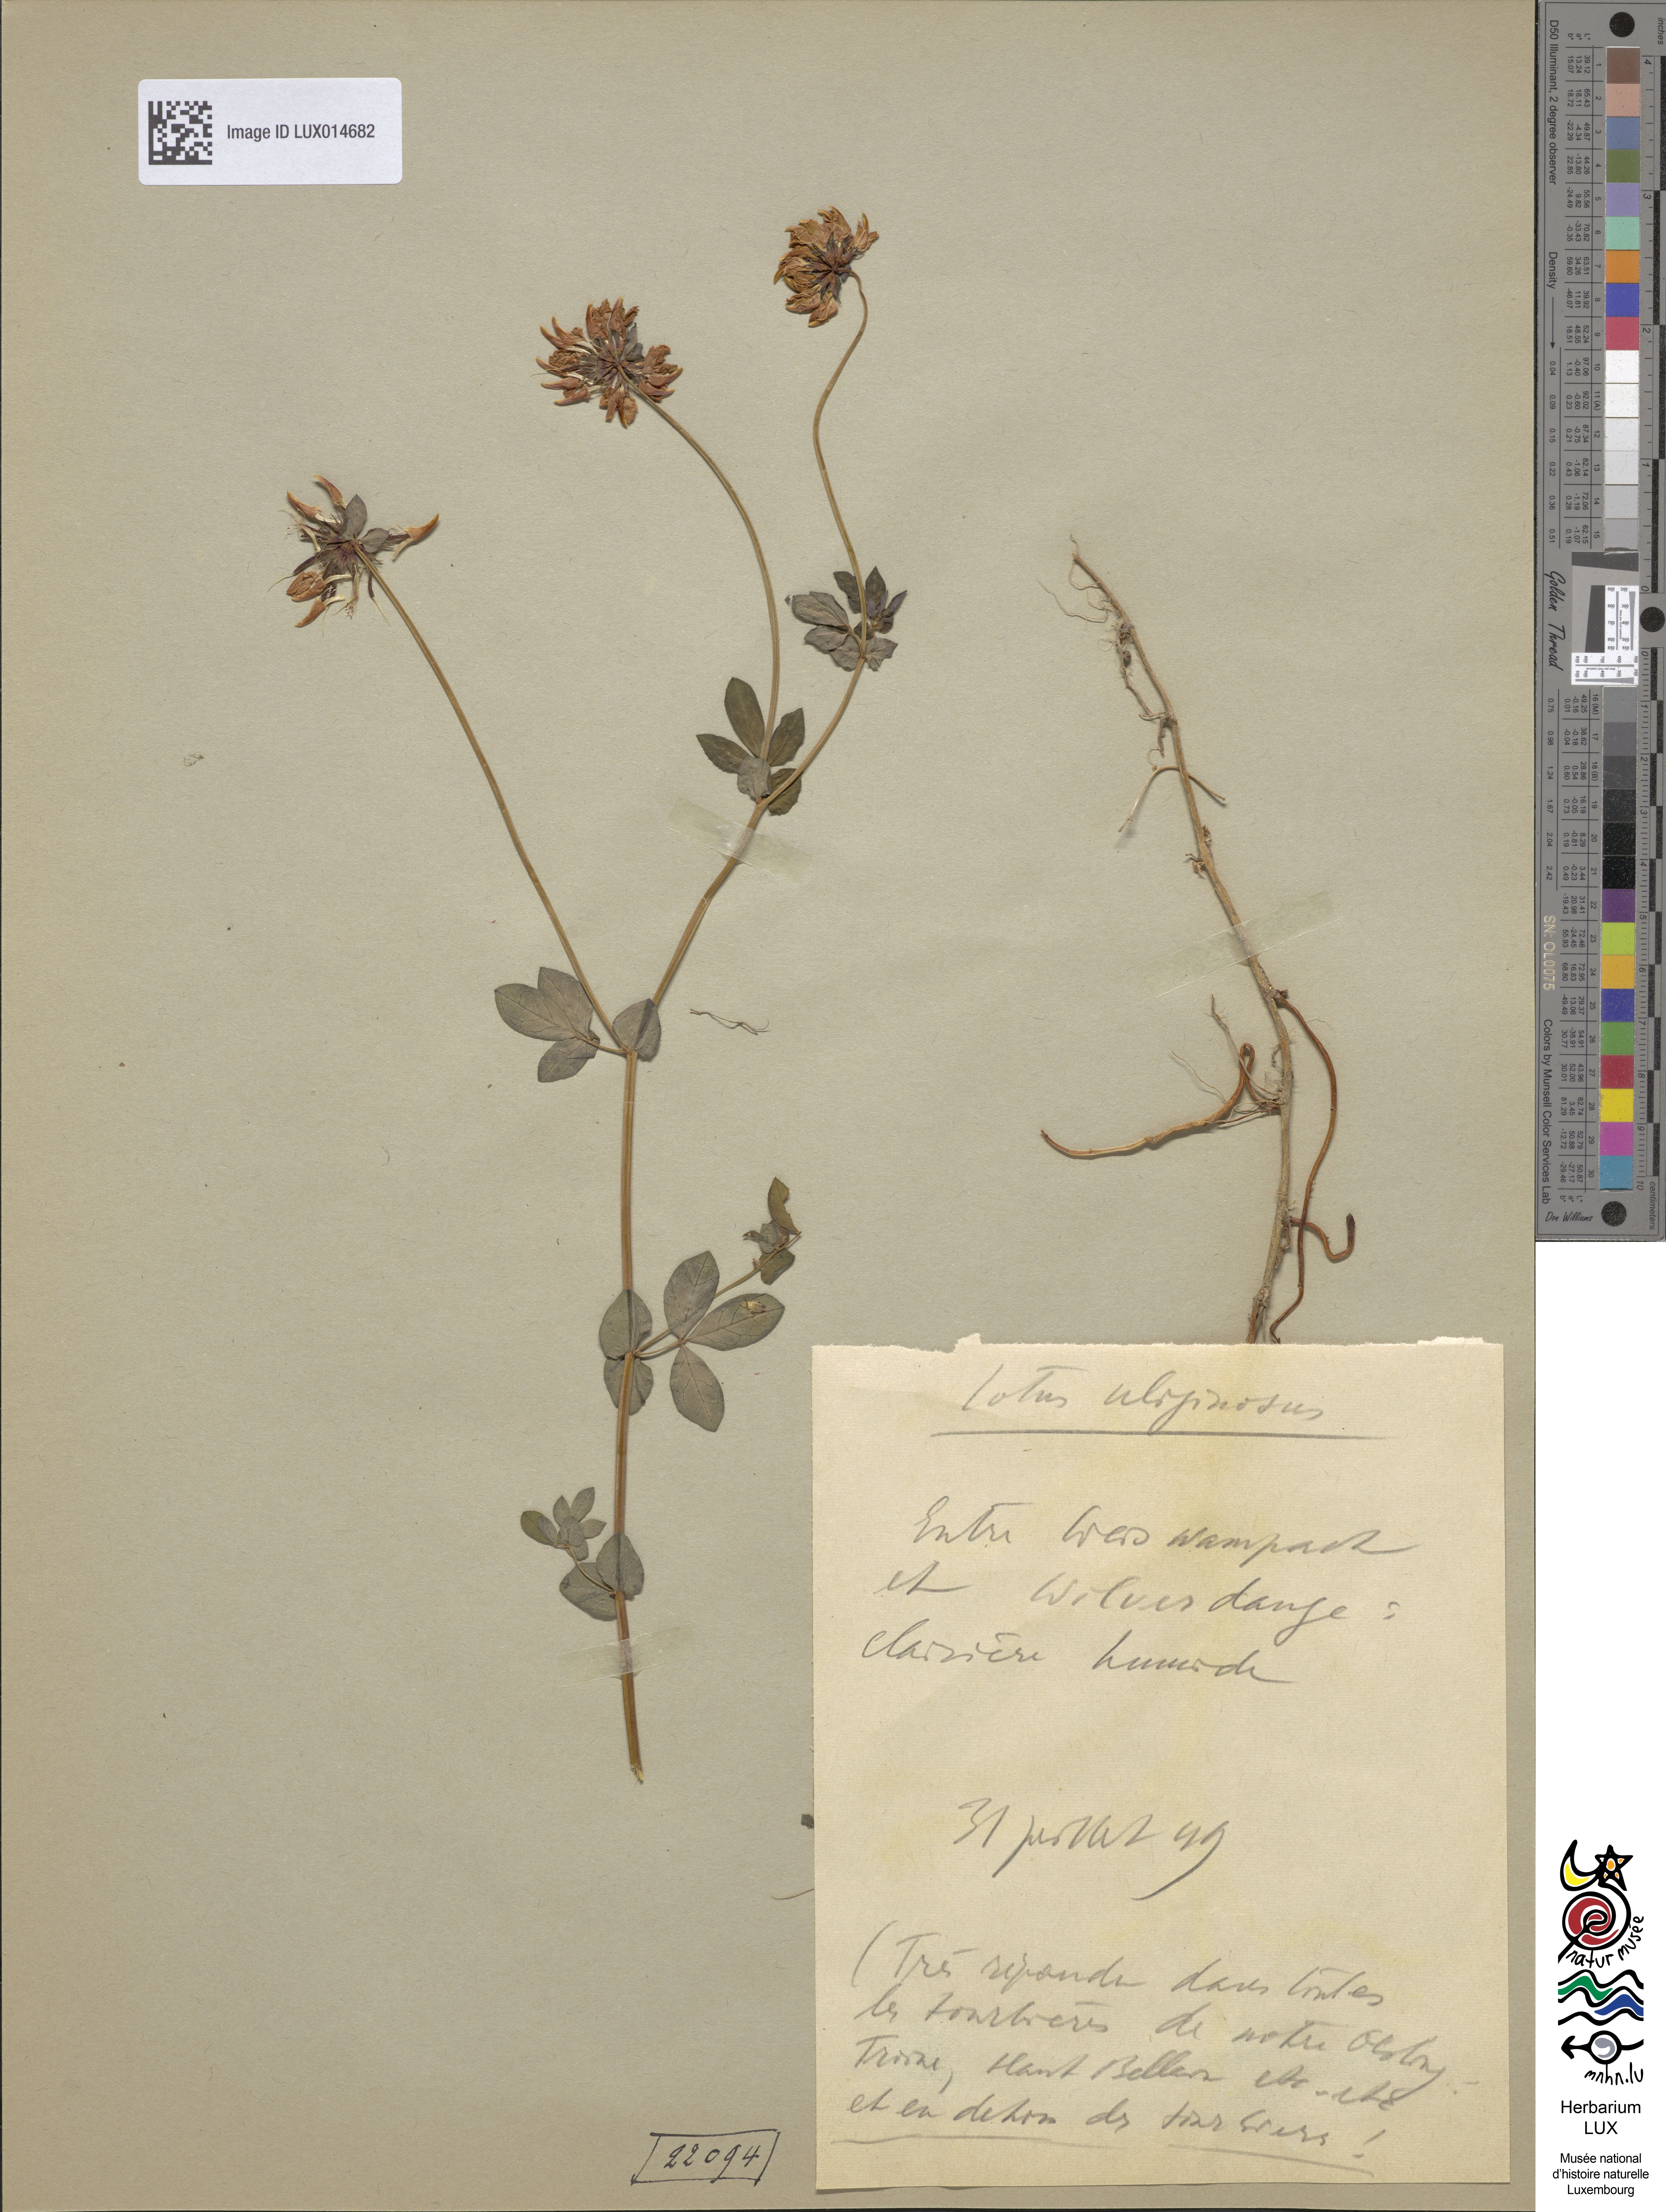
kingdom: Plantae
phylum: Tracheophyta
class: Magnoliopsida
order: Fabales
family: Fabaceae
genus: Lotus
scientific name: Lotus pedunculatus
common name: Greater birdsfoot-trefoil
